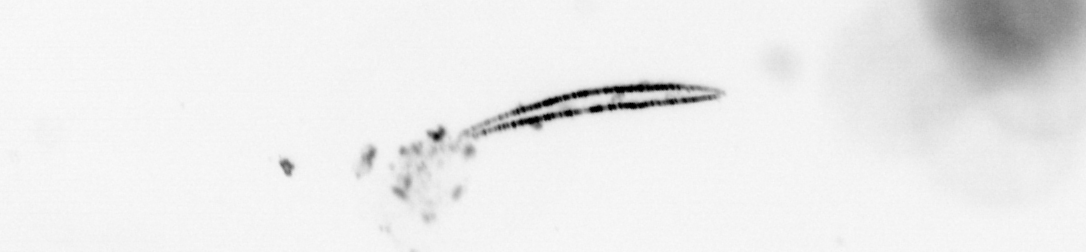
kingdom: Chromista
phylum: Ochrophyta
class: Bacillariophyceae
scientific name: Bacillariophyceae
